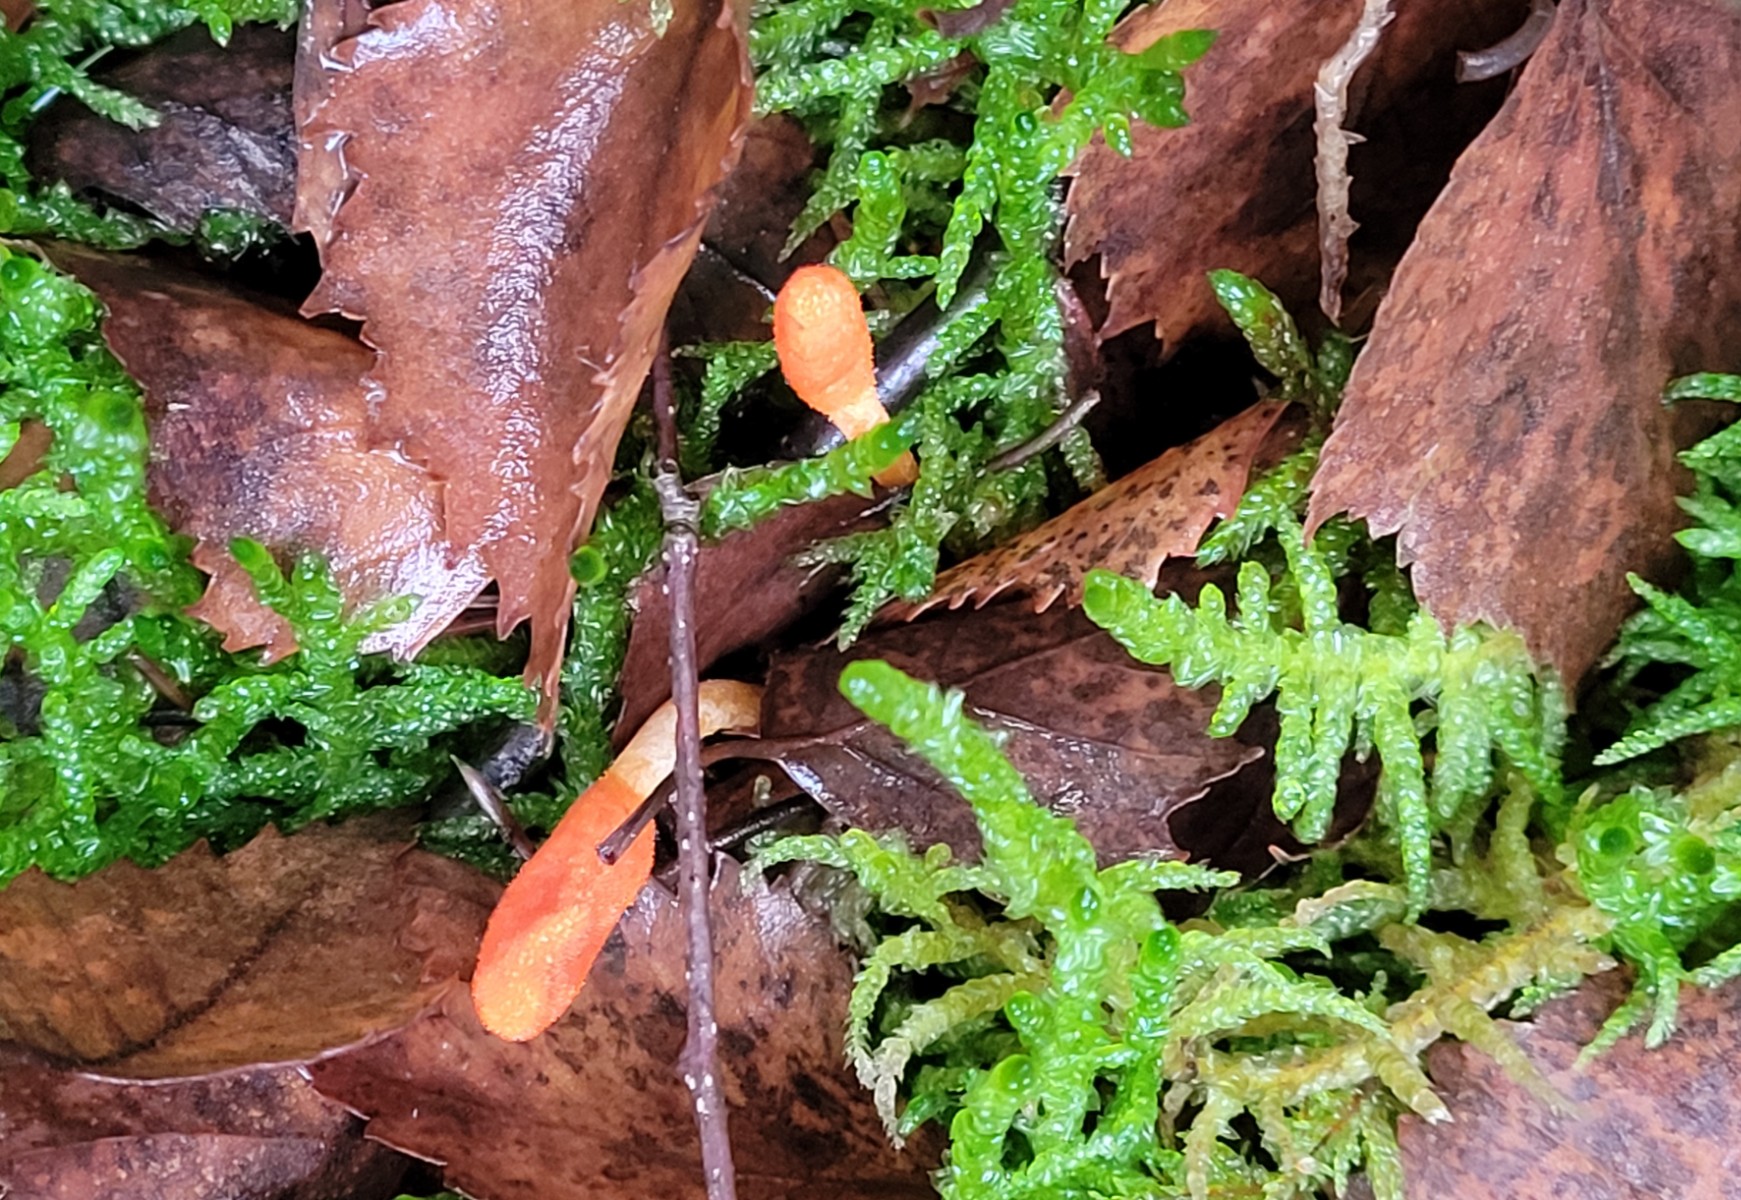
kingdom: Fungi
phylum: Ascomycota
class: Sordariomycetes
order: Hypocreales
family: Cordycipitaceae
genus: Cordyceps
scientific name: Cordyceps militaris
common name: puppe-snyltekølle
